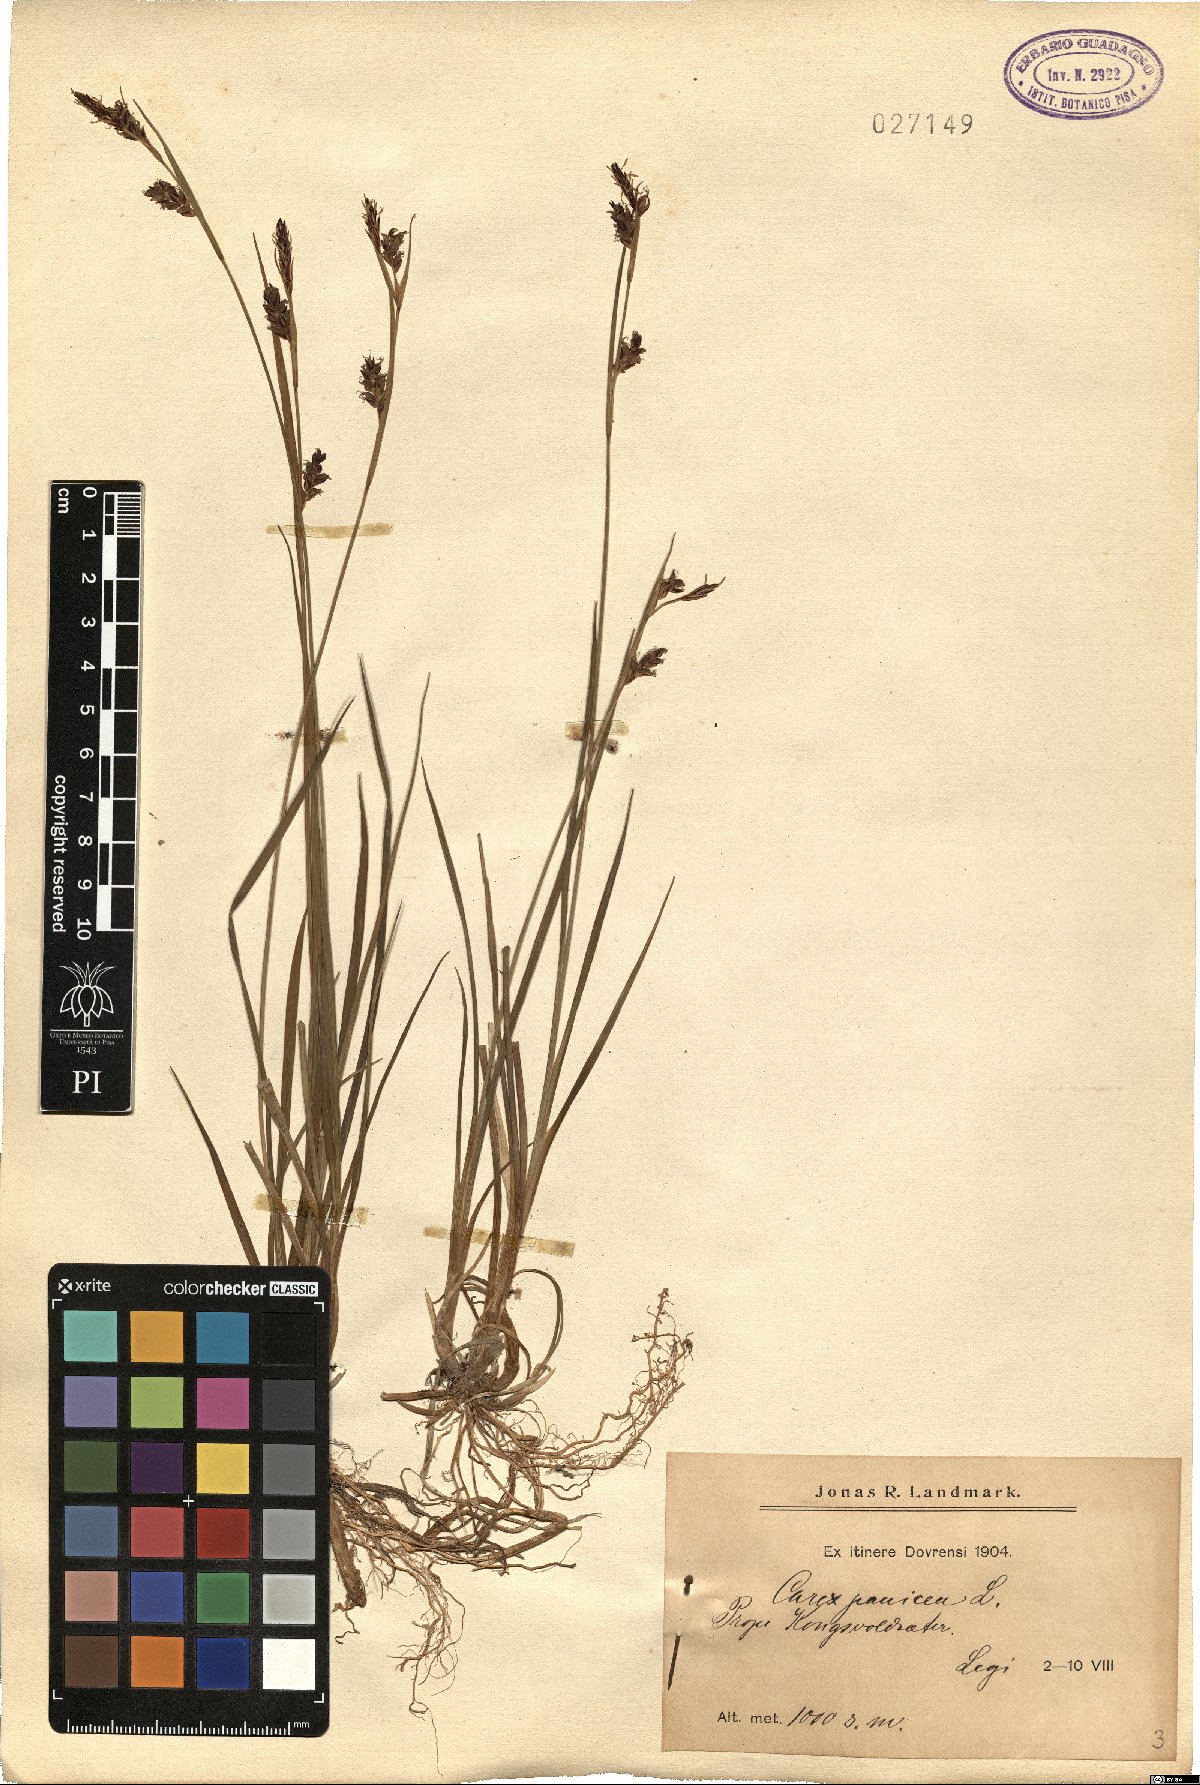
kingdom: Plantae
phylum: Tracheophyta
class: Liliopsida
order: Poales
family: Cyperaceae
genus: Carex
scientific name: Carex panicea
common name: Carnation sedge
